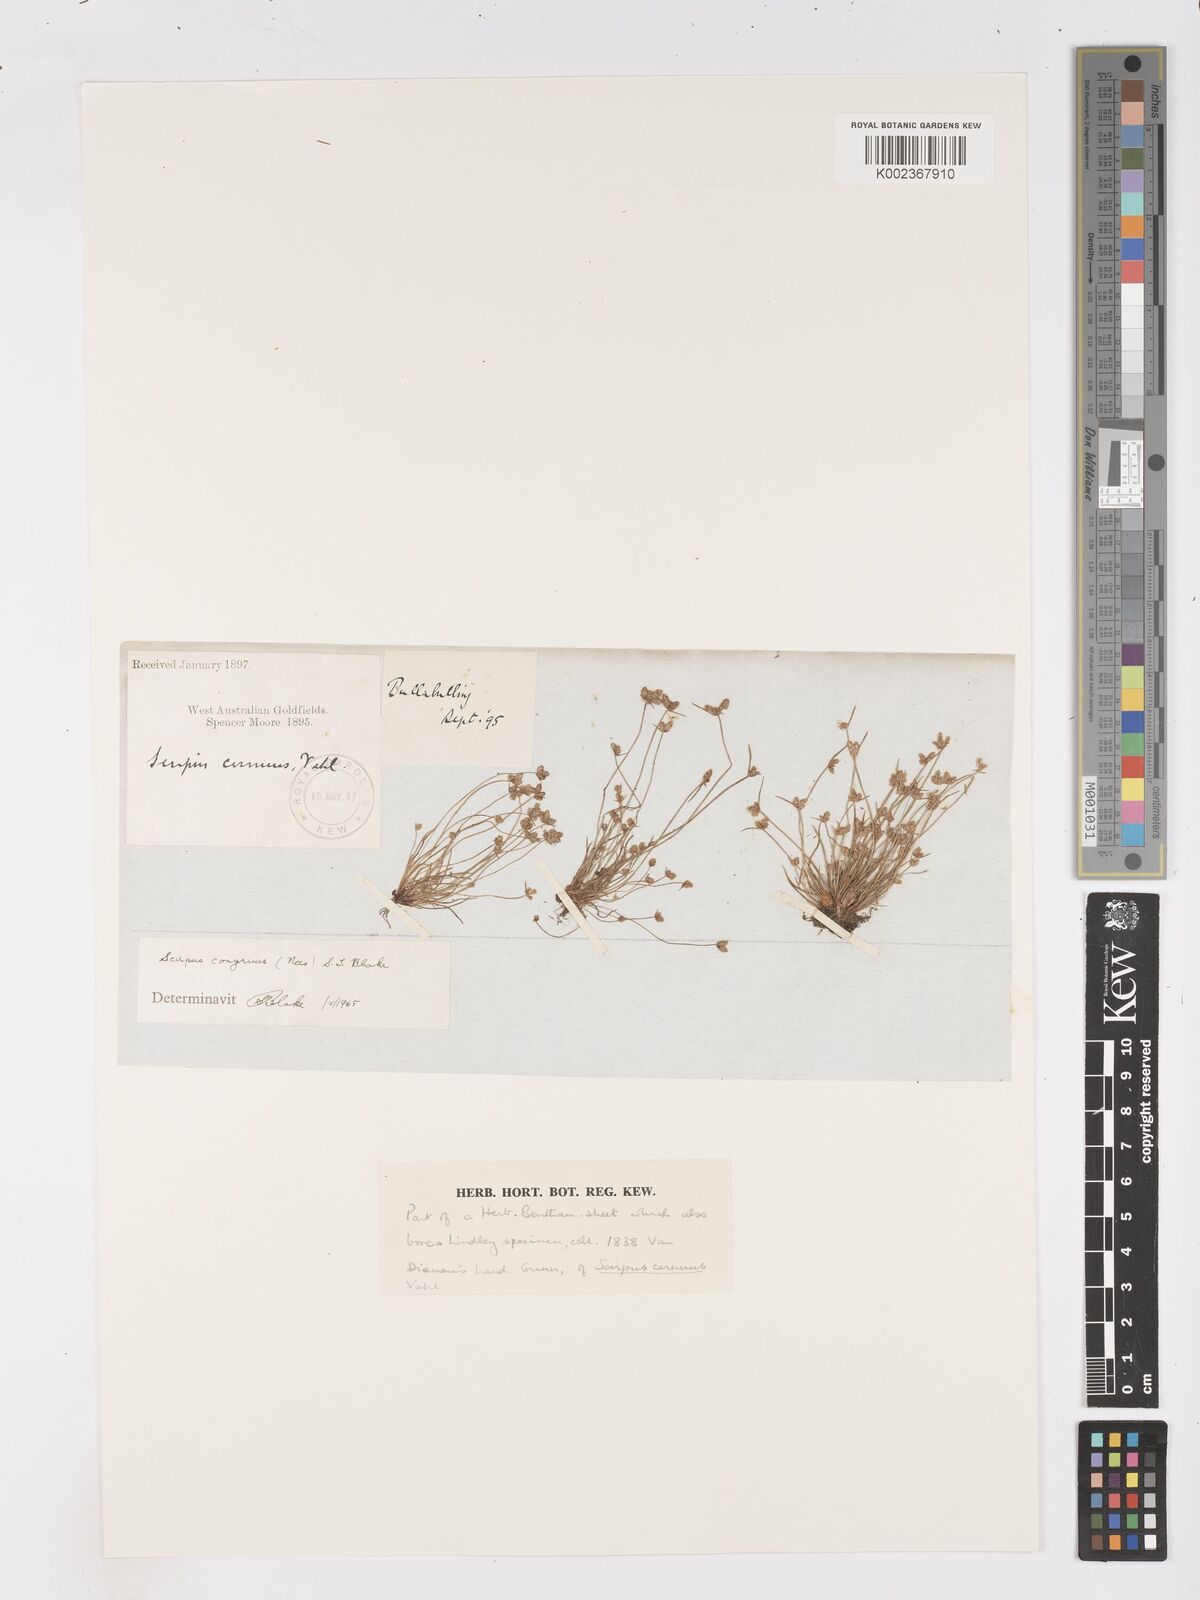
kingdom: Plantae
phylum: Tracheophyta
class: Liliopsida
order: Poales
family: Cyperaceae
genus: Isolepis
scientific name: Isolepis congrua
